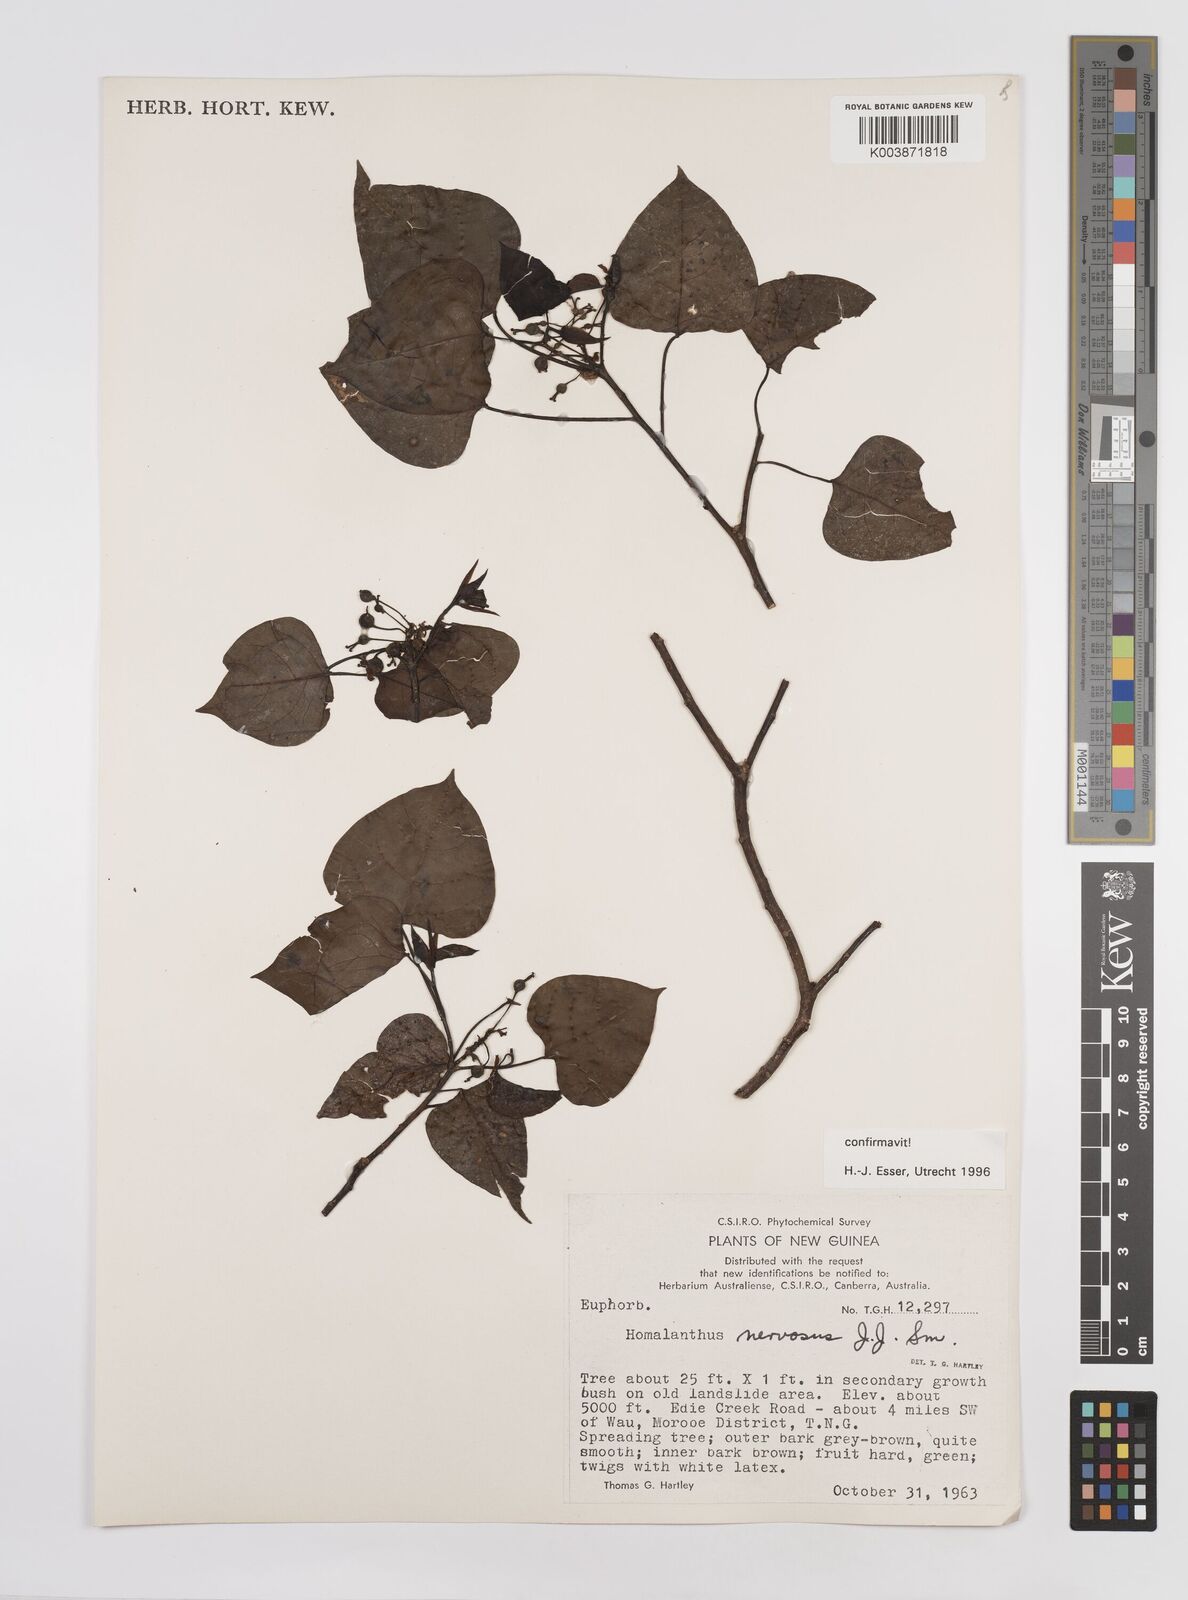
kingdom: Plantae
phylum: Tracheophyta
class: Magnoliopsida
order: Malpighiales
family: Euphorbiaceae
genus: Homalanthus
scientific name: Homalanthus nervosus
